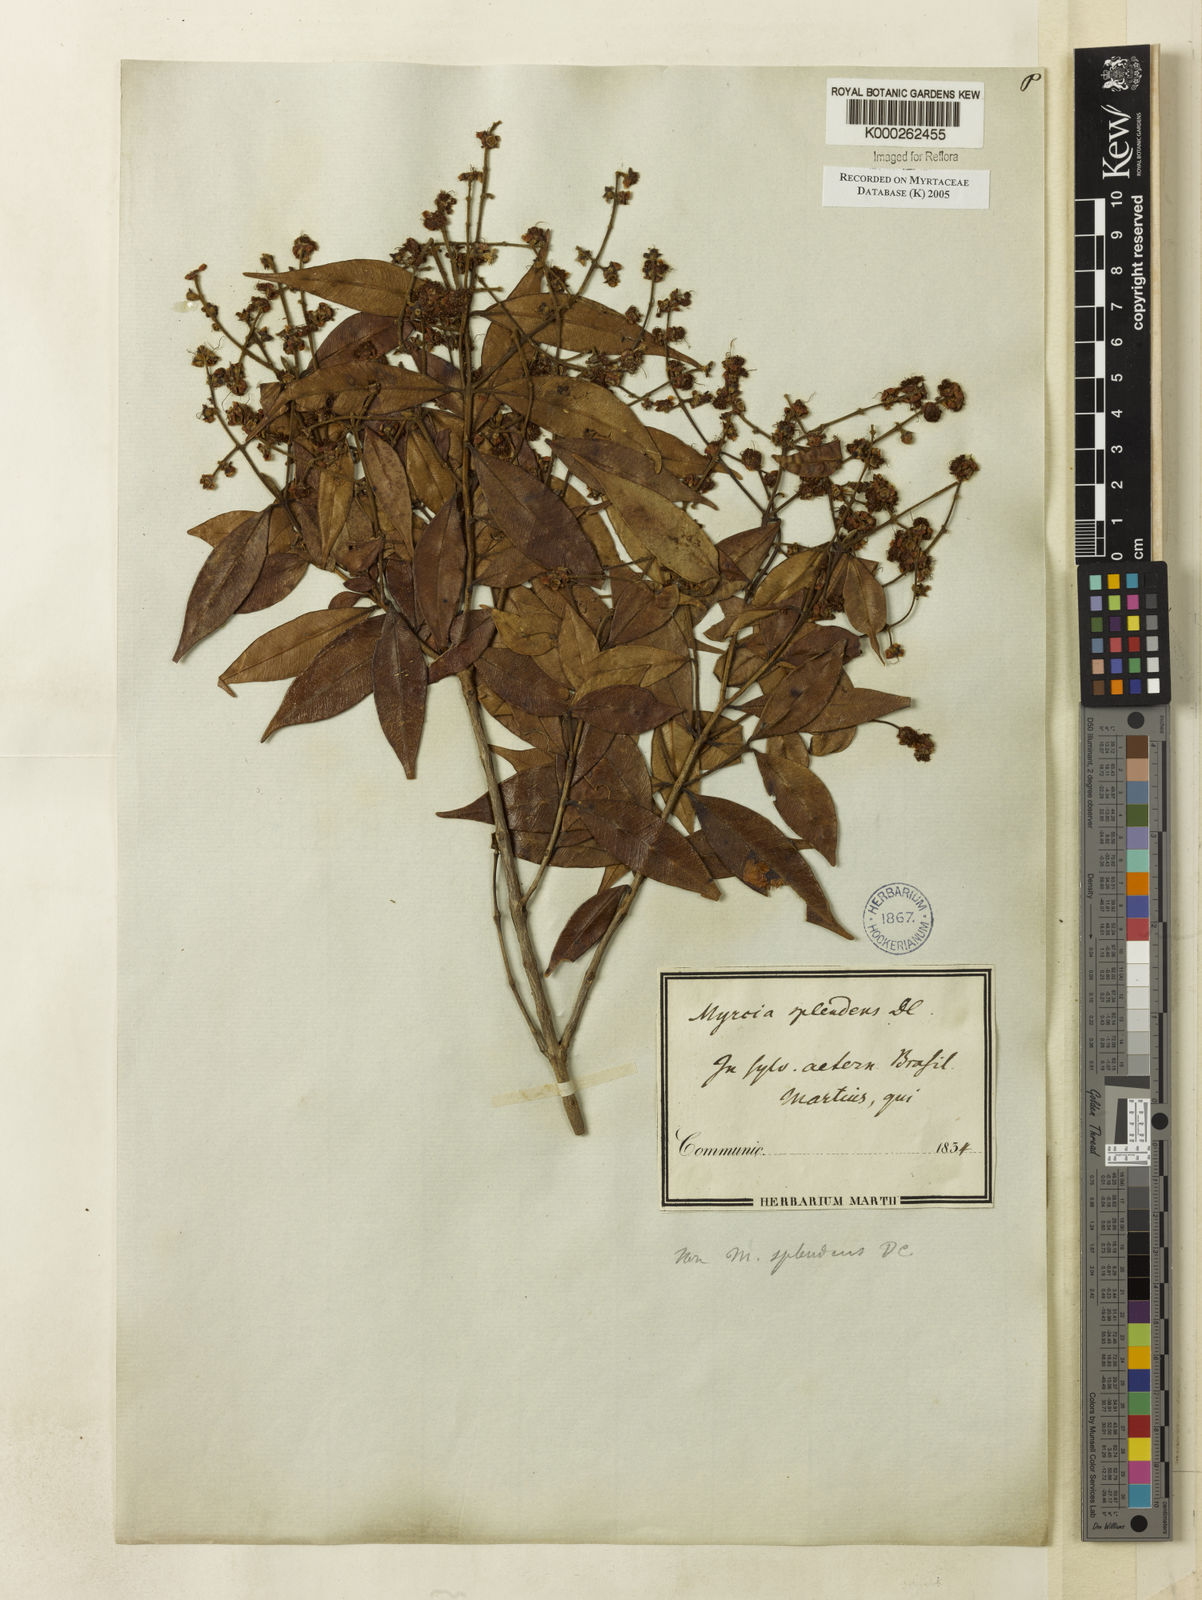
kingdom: Plantae
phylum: Tracheophyta
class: Magnoliopsida
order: Myrtales
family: Myrtaceae
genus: Myrcia
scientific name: Myrcia
